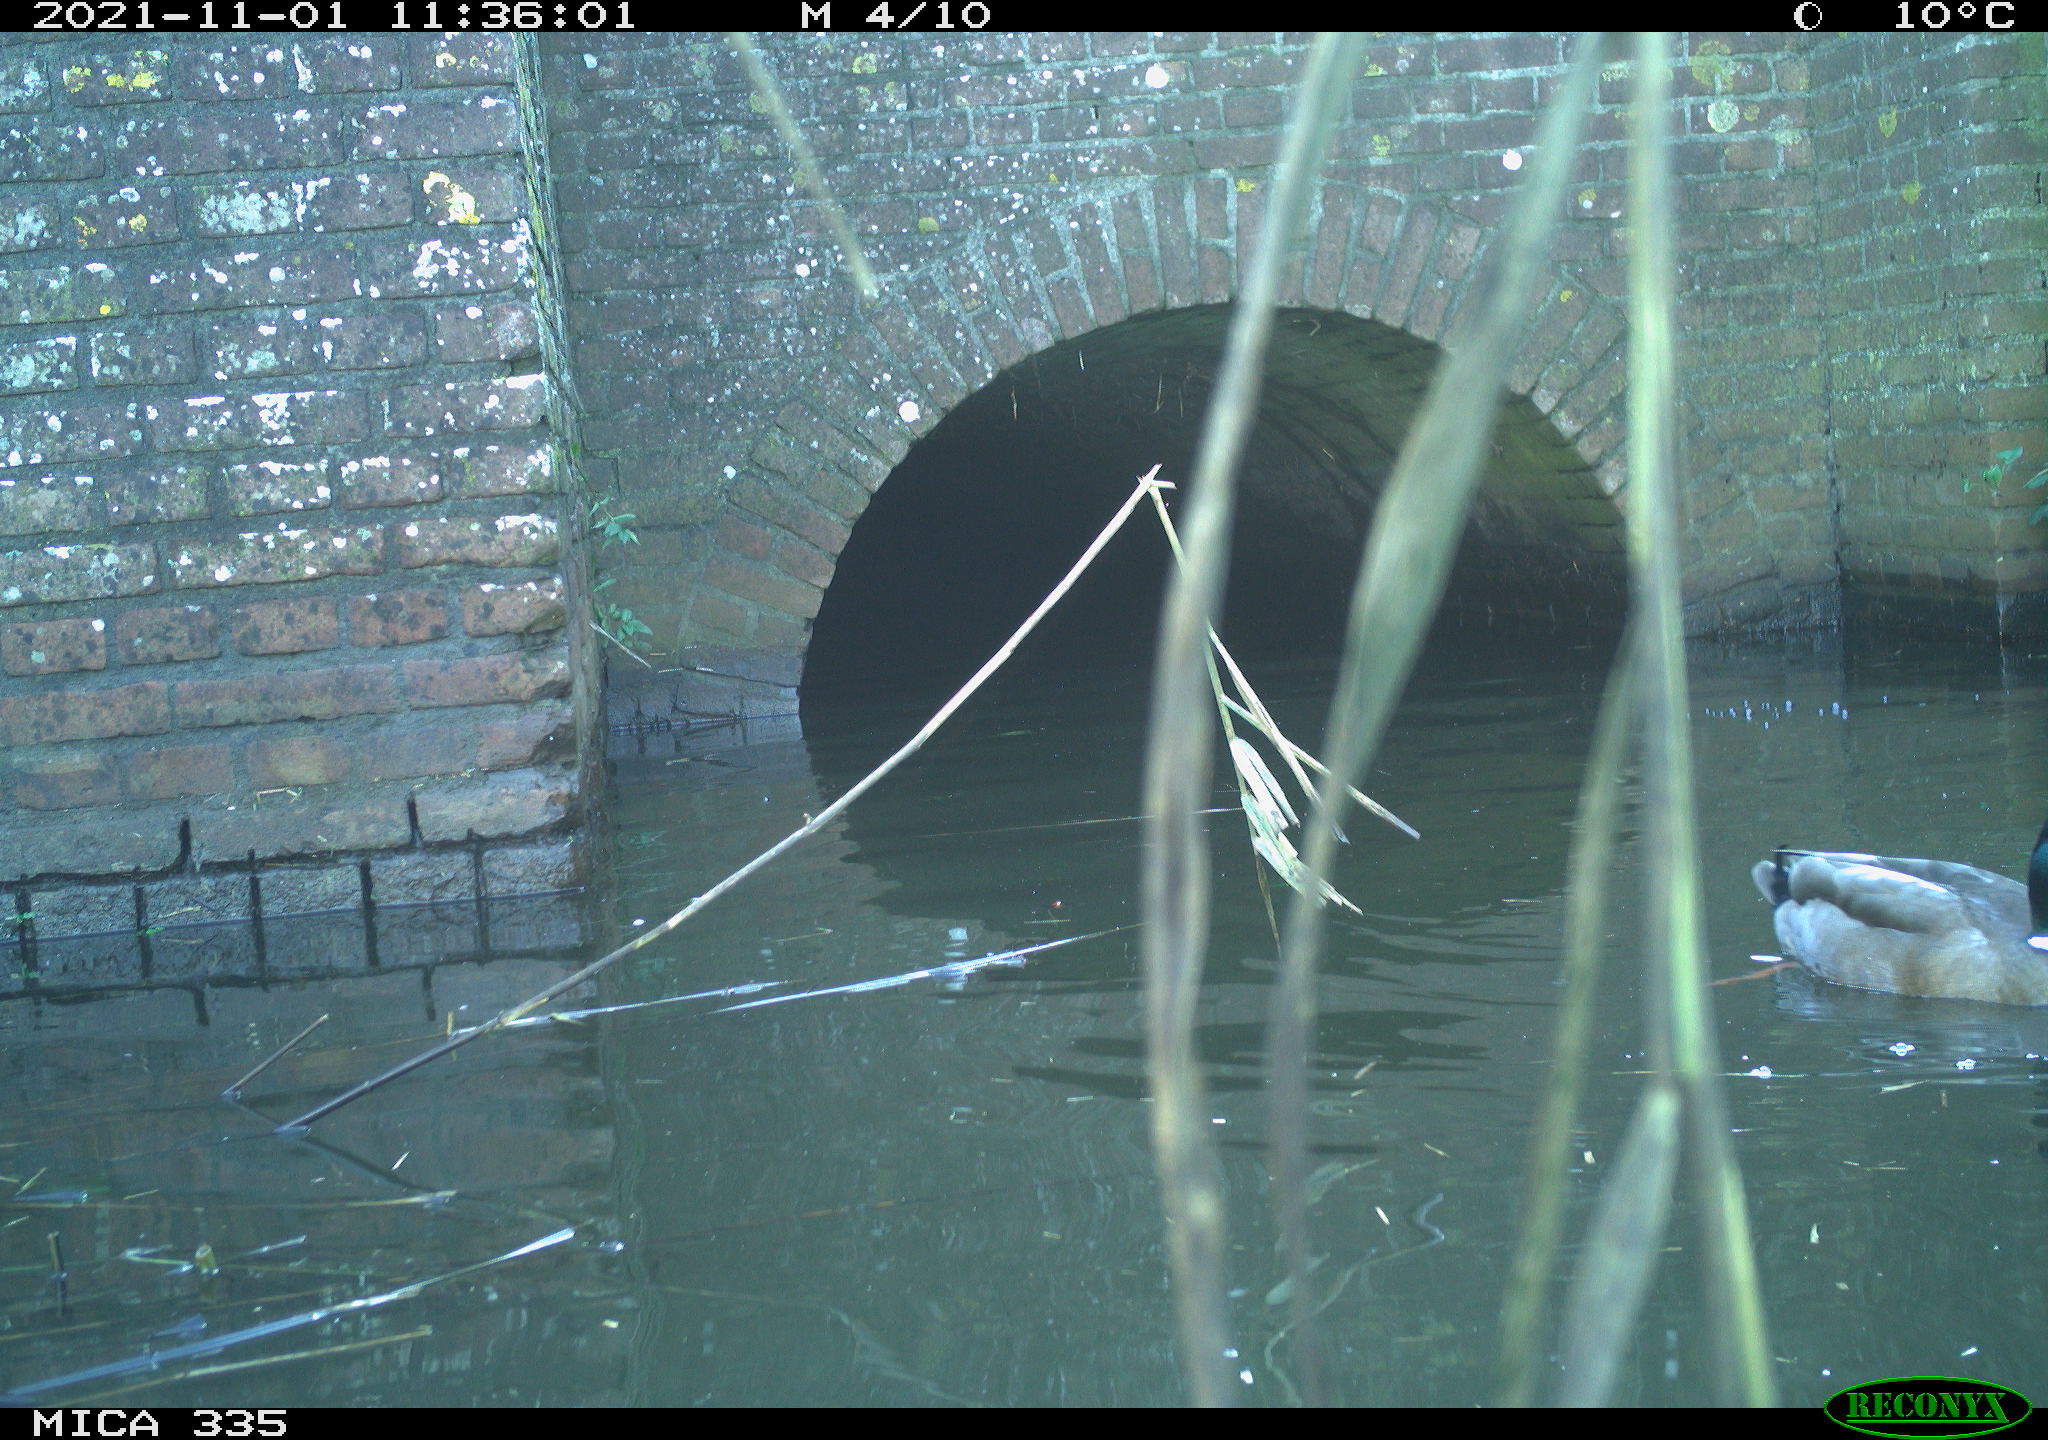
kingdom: Animalia
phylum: Chordata
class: Aves
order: Anseriformes
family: Anatidae
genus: Anas
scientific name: Anas platyrhynchos
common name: Mallard
